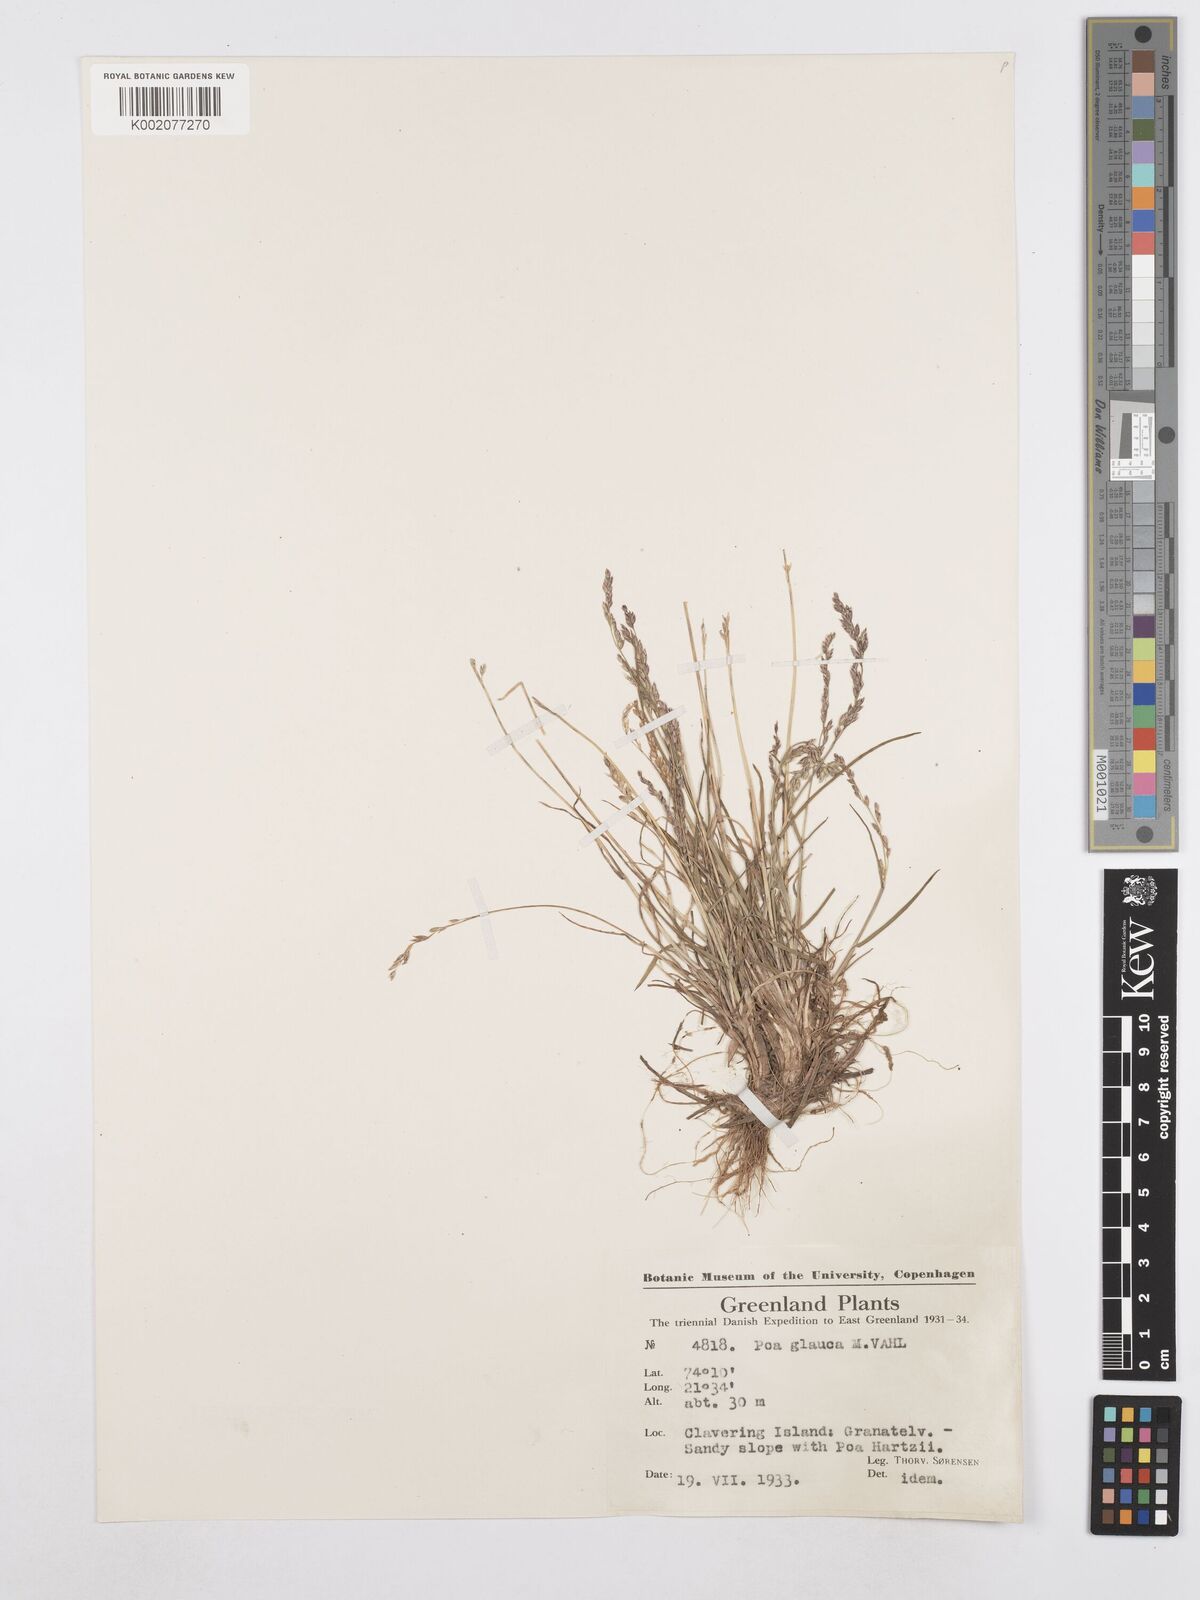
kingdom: Plantae
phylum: Tracheophyta
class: Liliopsida
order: Poales
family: Poaceae
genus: Poa
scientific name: Poa glauca
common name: Glaucous bluegrass
